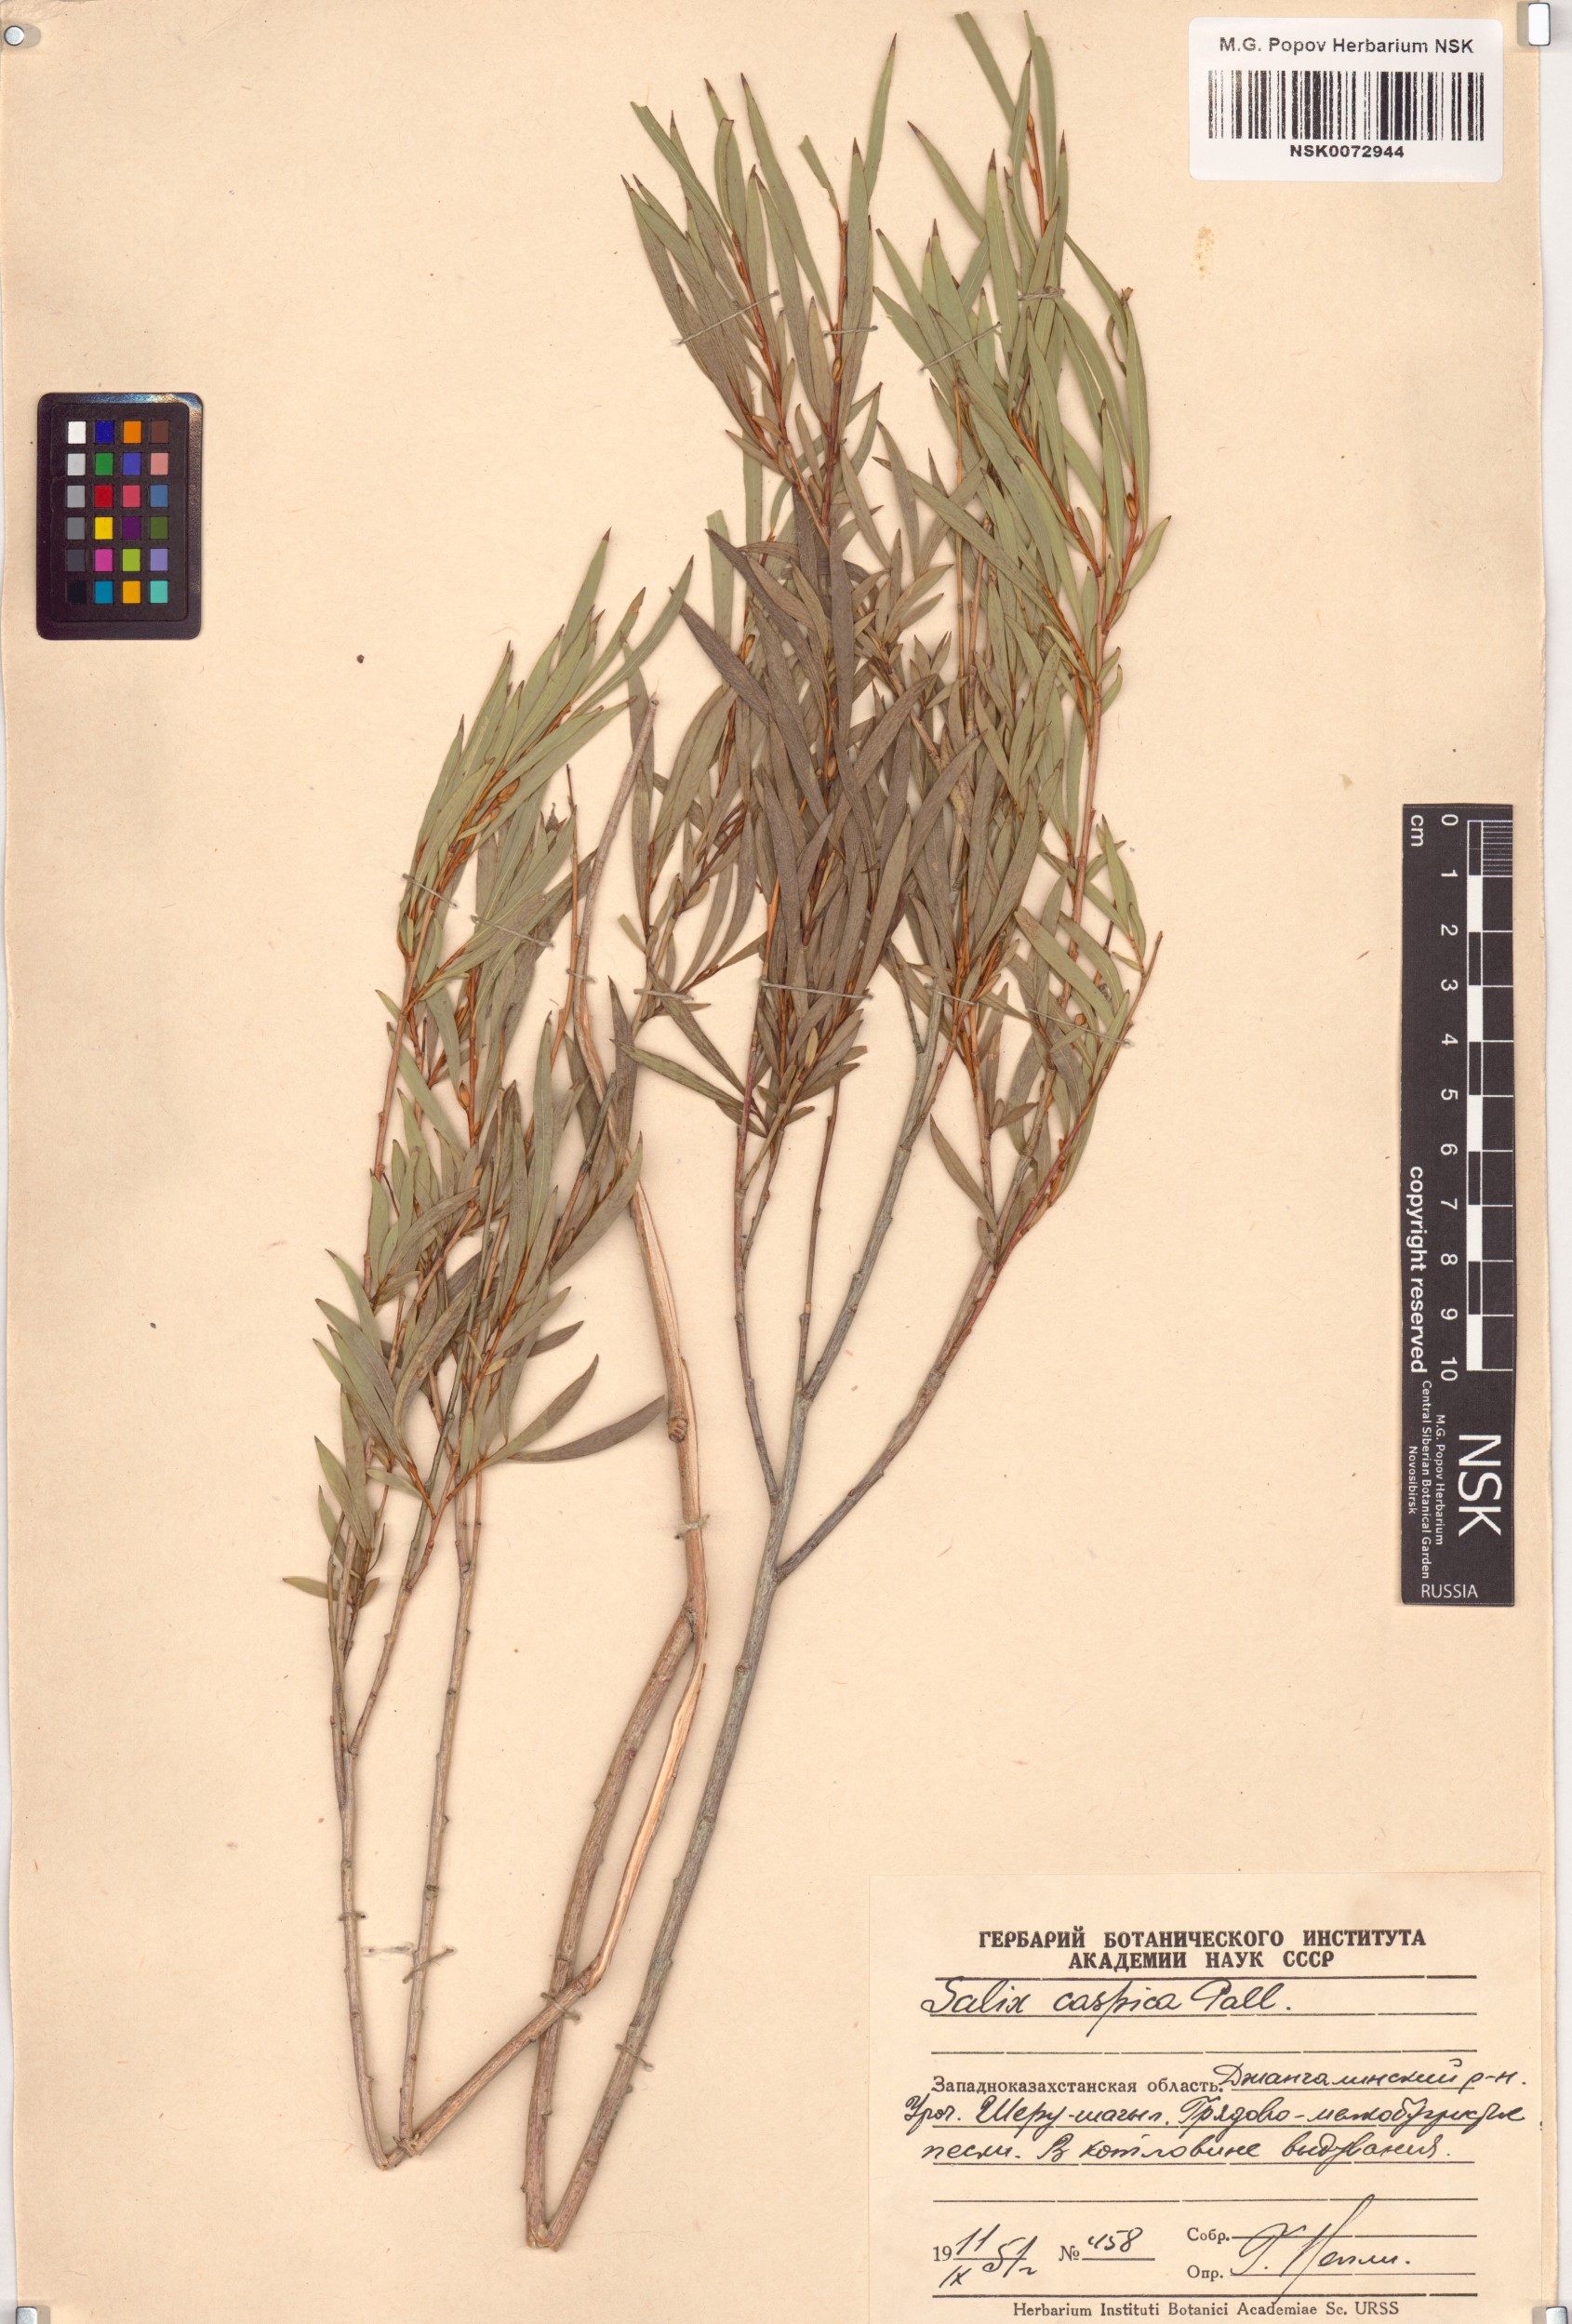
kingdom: Plantae
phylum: Tracheophyta
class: Magnoliopsida
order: Malpighiales
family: Salicaceae
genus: Salix
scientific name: Salix caspica
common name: Caspian willow
